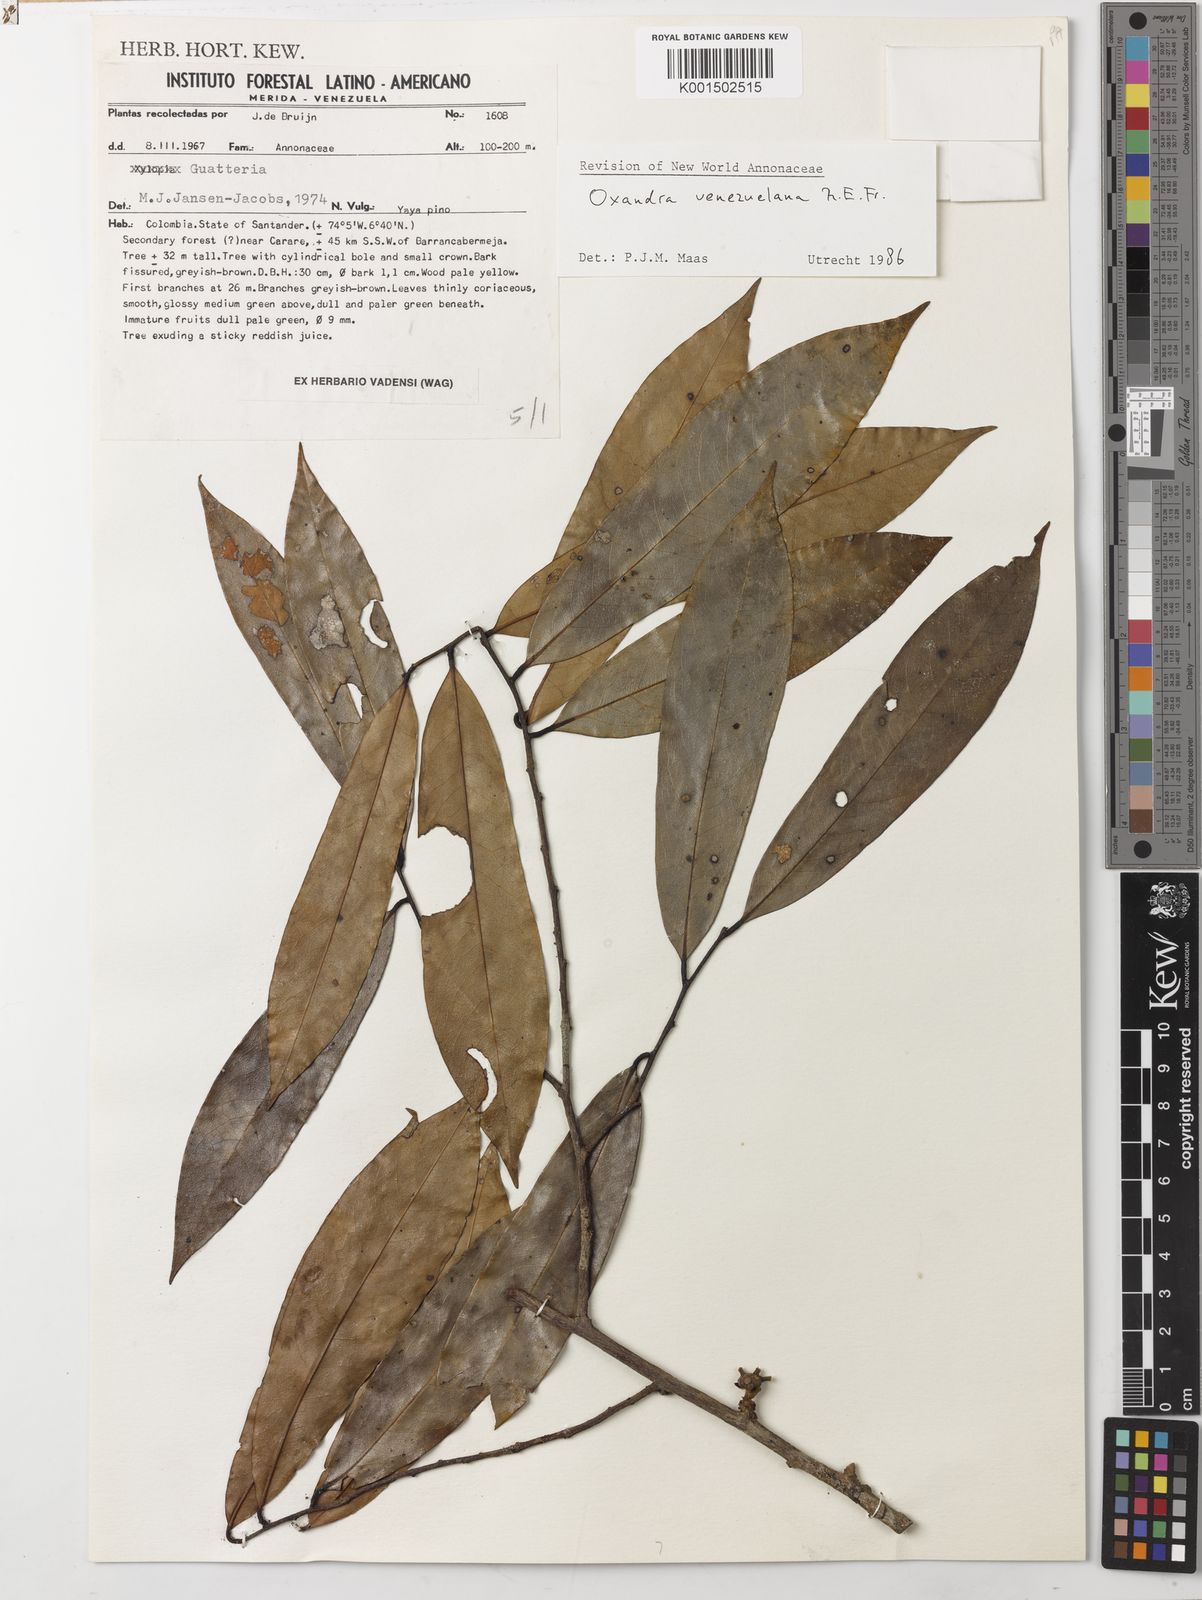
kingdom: Plantae
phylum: Tracheophyta
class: Magnoliopsida
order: Magnoliales
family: Annonaceae
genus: Oxandra
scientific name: Oxandra venezuelana
